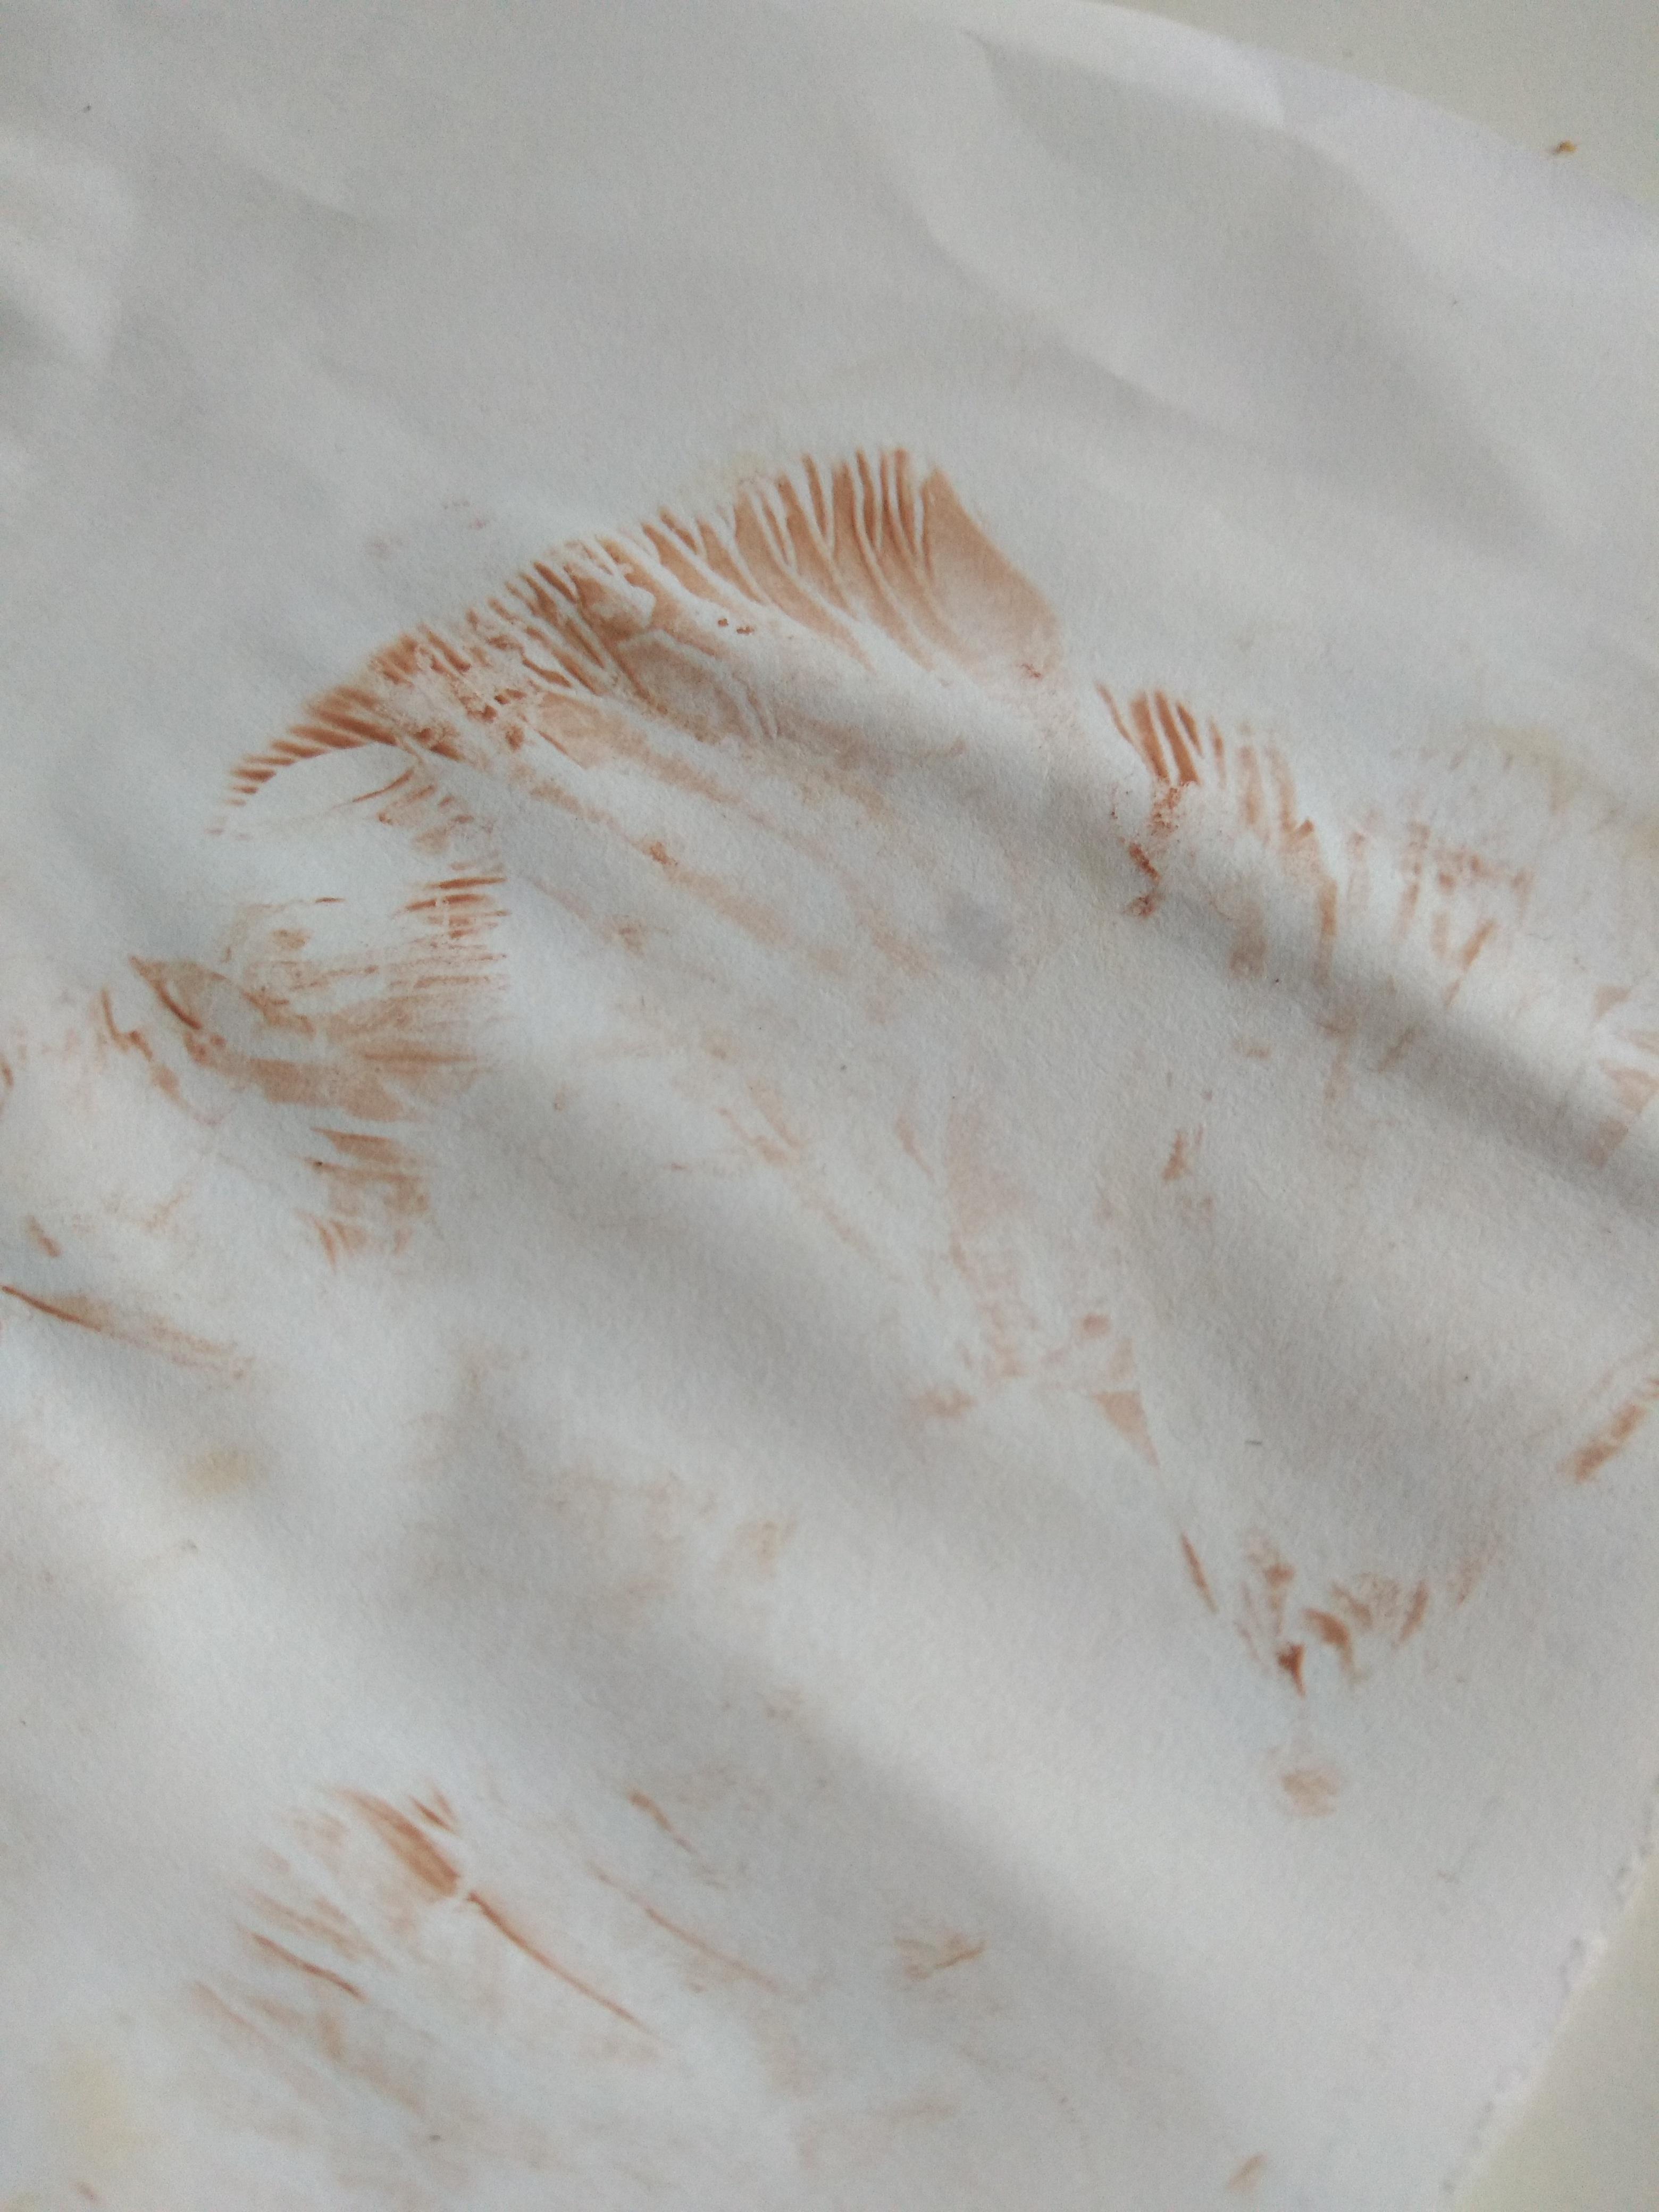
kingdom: Fungi
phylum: Basidiomycota
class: Agaricomycetes
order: Agaricales
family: Entolomataceae
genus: Entoloma
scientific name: Entoloma
